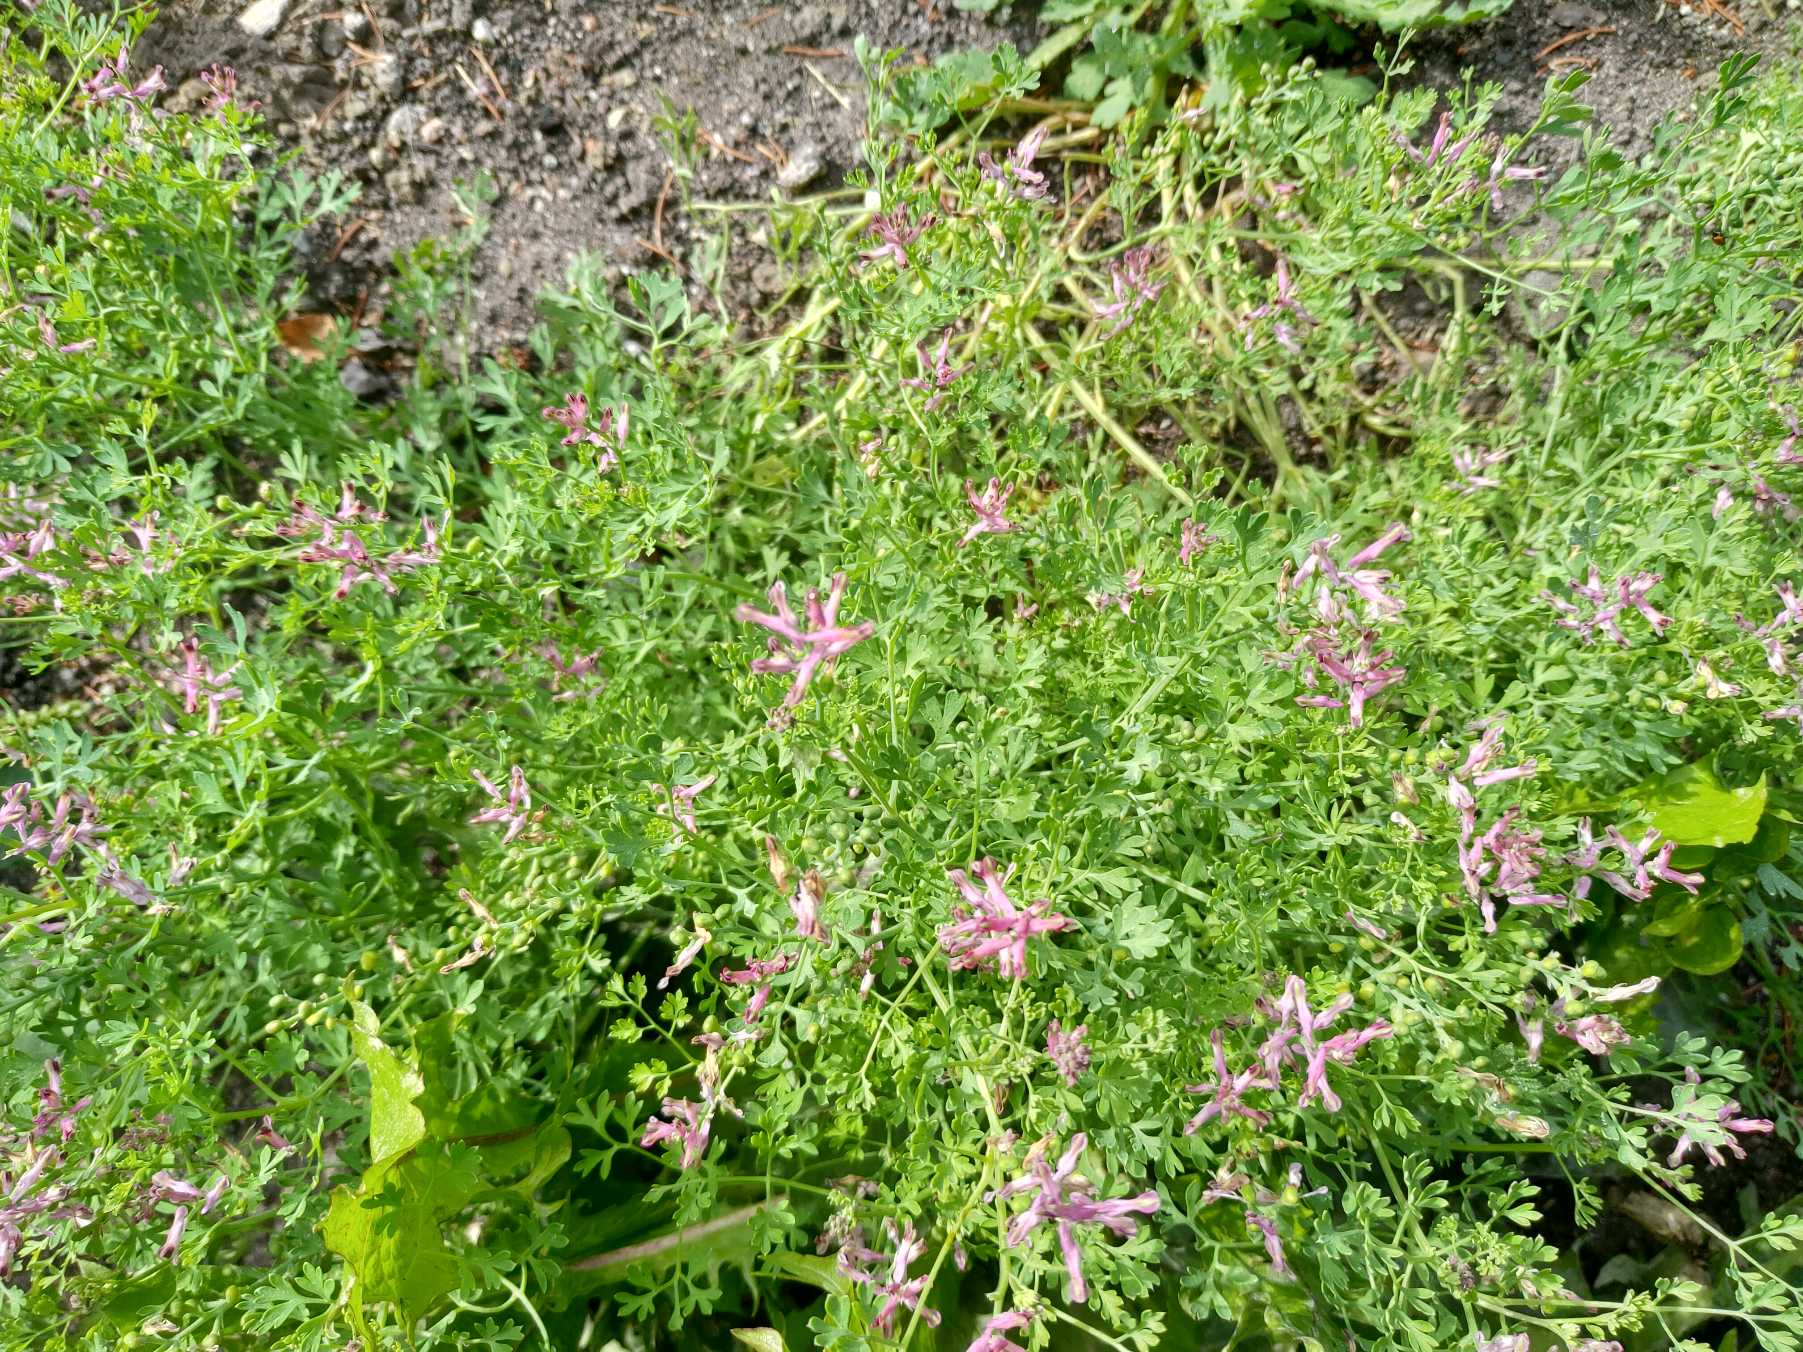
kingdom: Plantae
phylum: Tracheophyta
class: Magnoliopsida
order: Ranunculales
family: Papaveraceae
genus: Fumaria
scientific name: Fumaria muralis
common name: Mur-jordrøg
